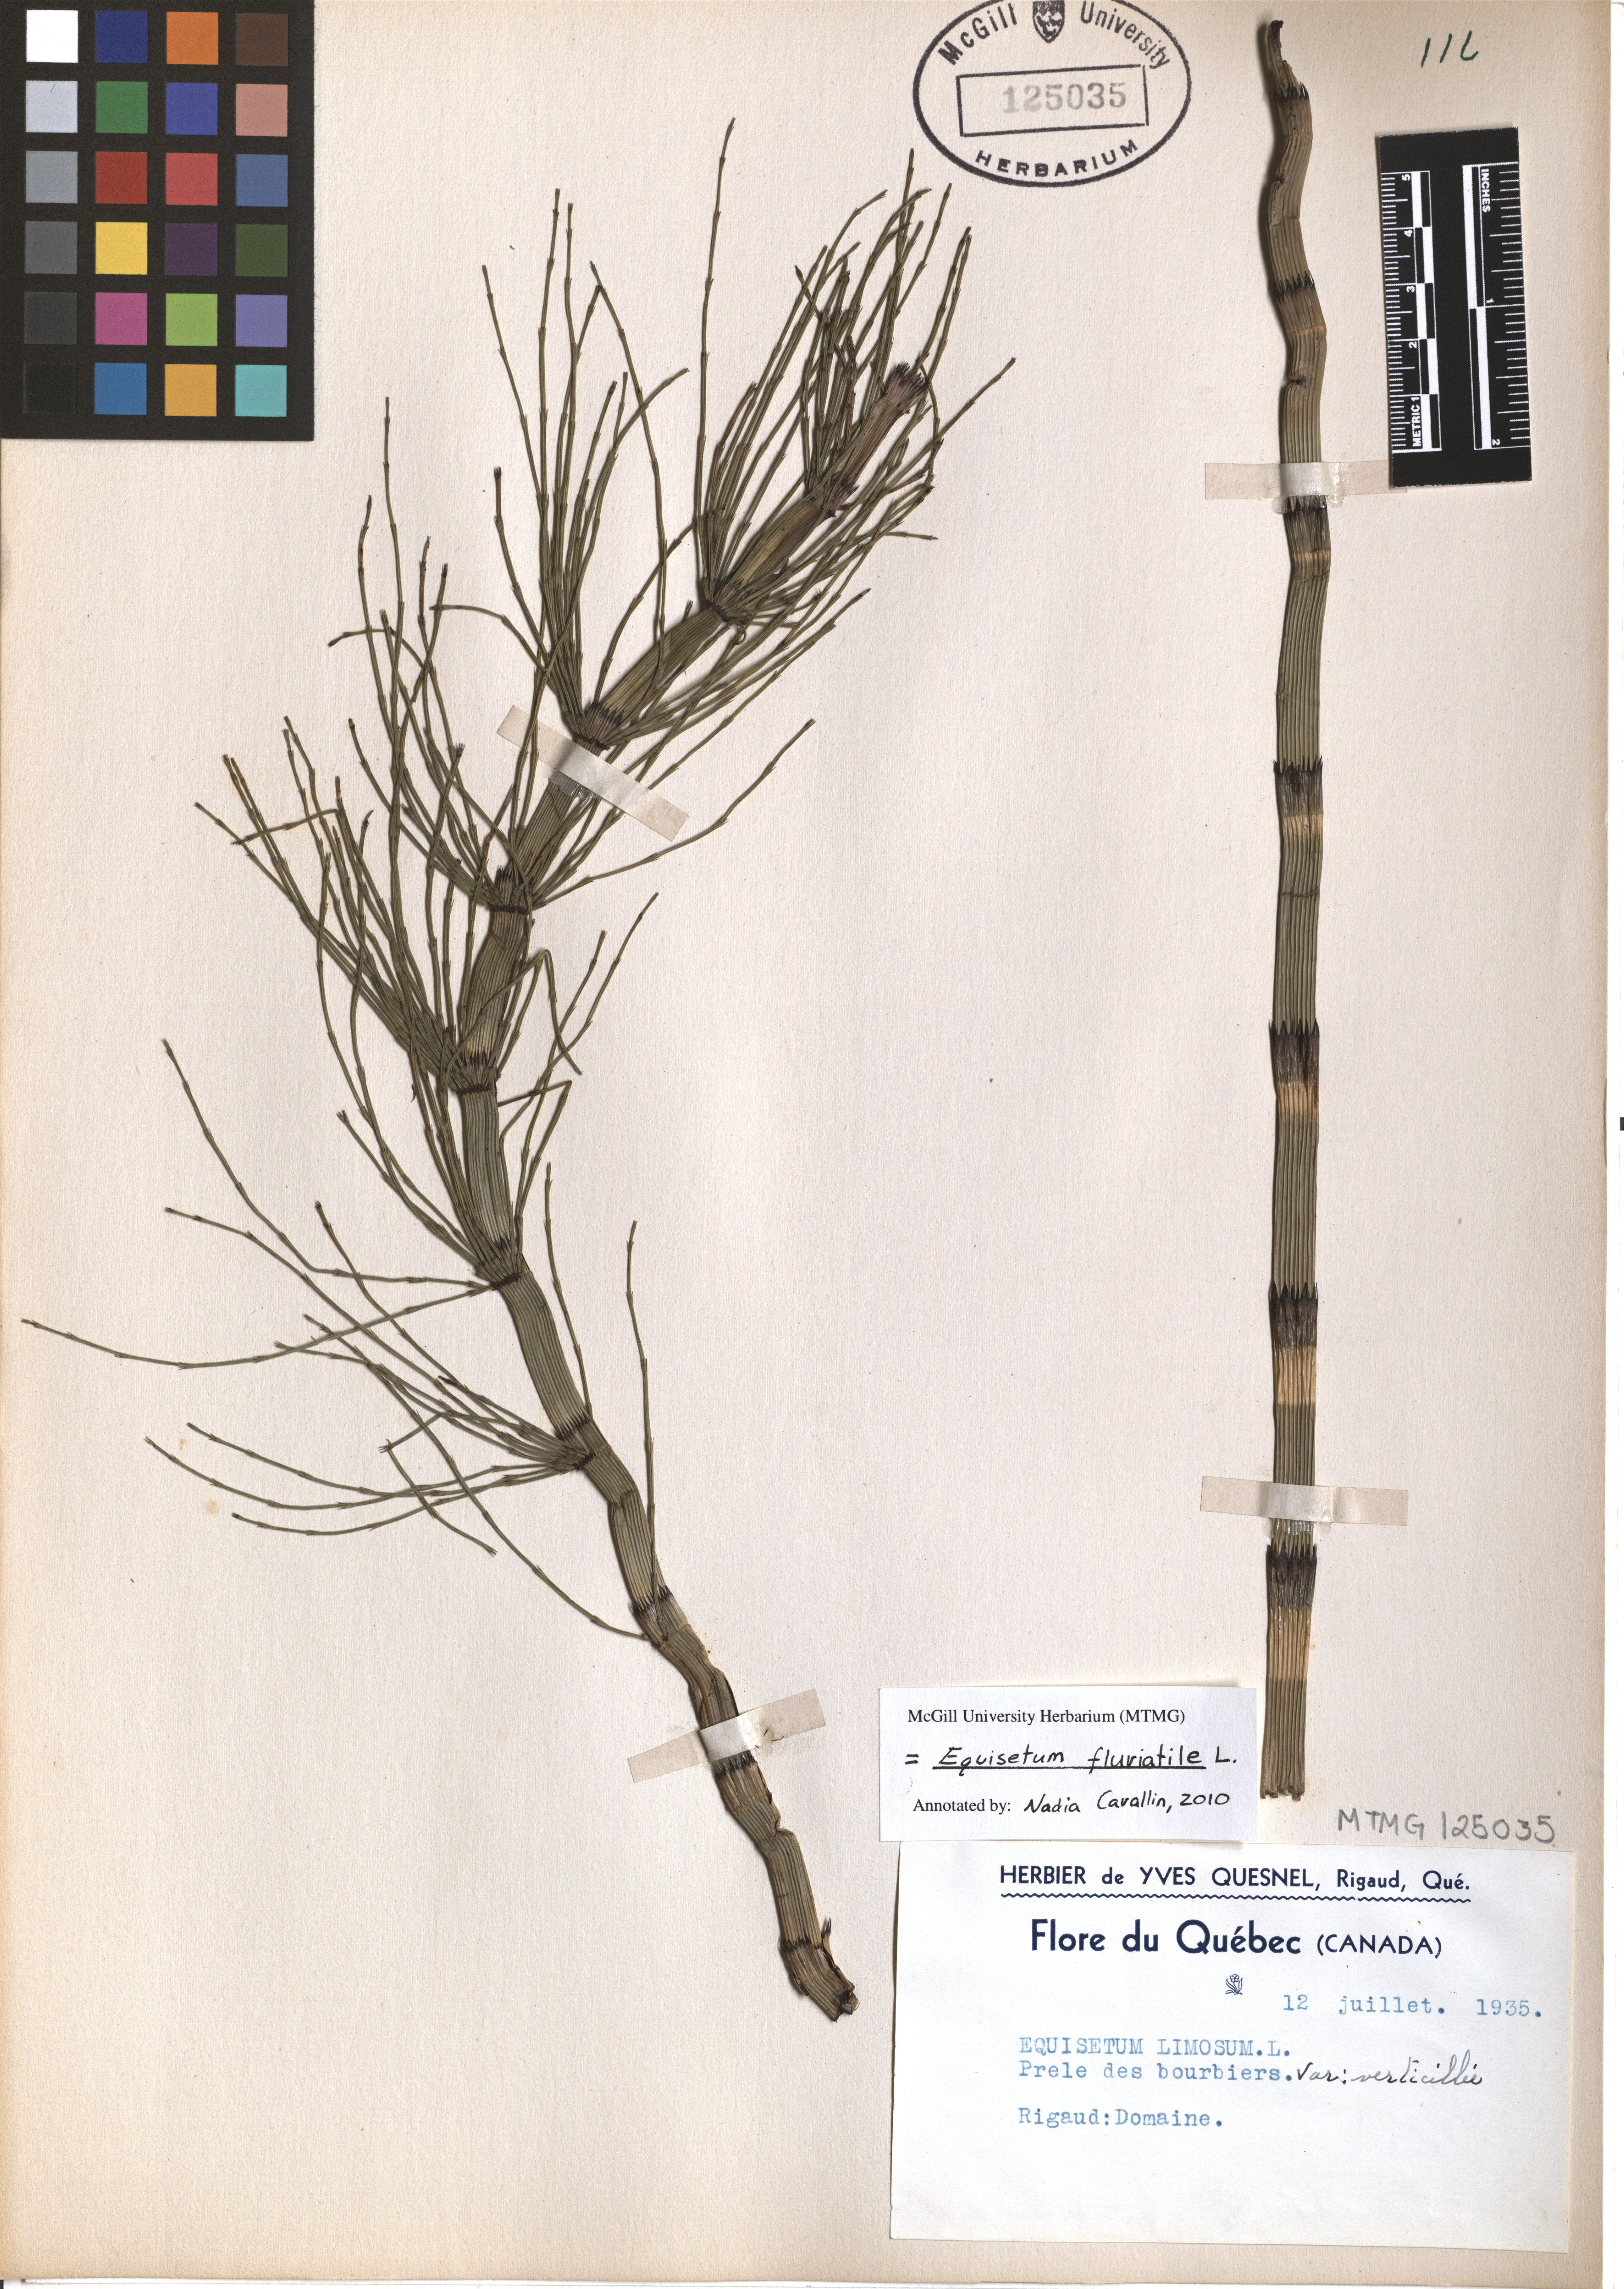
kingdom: Plantae
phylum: Tracheophyta
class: Polypodiopsida
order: Equisetales
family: Equisetaceae
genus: Equisetum
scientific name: Equisetum fluviatile
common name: Water horsetail
